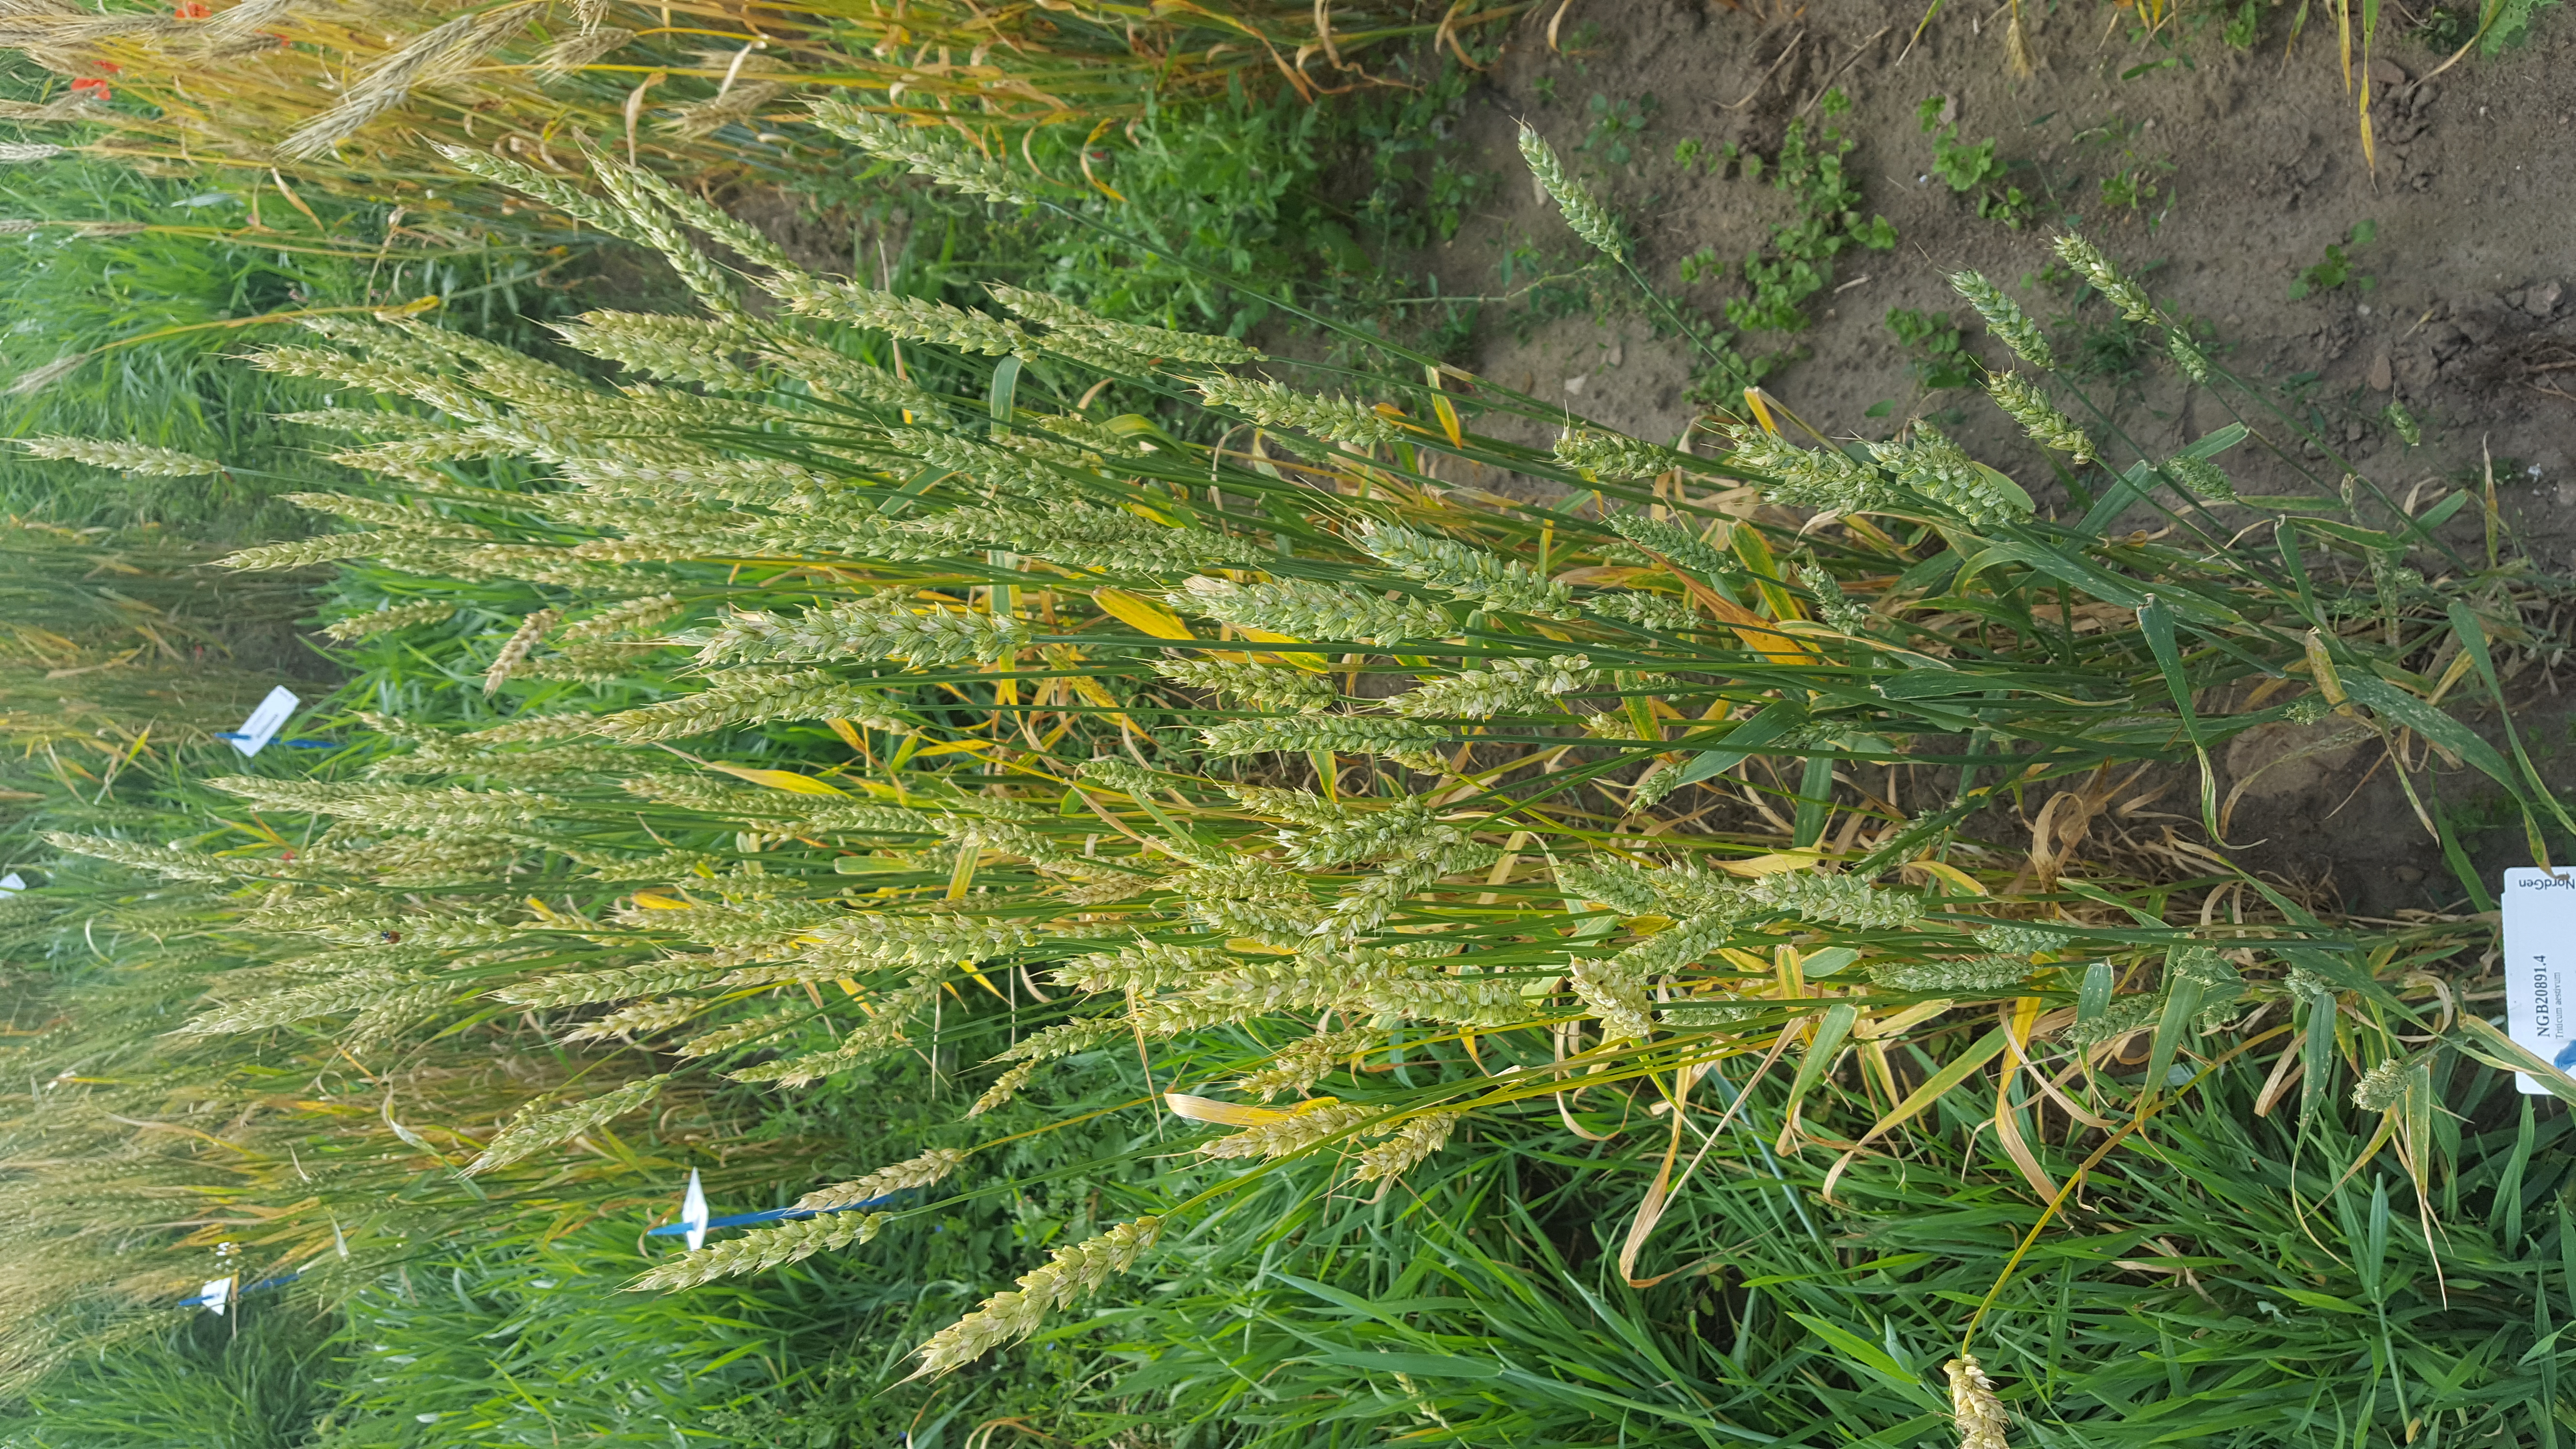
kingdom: Plantae
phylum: Tracheophyta
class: Liliopsida
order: Poales
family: Poaceae
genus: Triticum
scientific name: Triticum aestivum
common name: Common wheat
